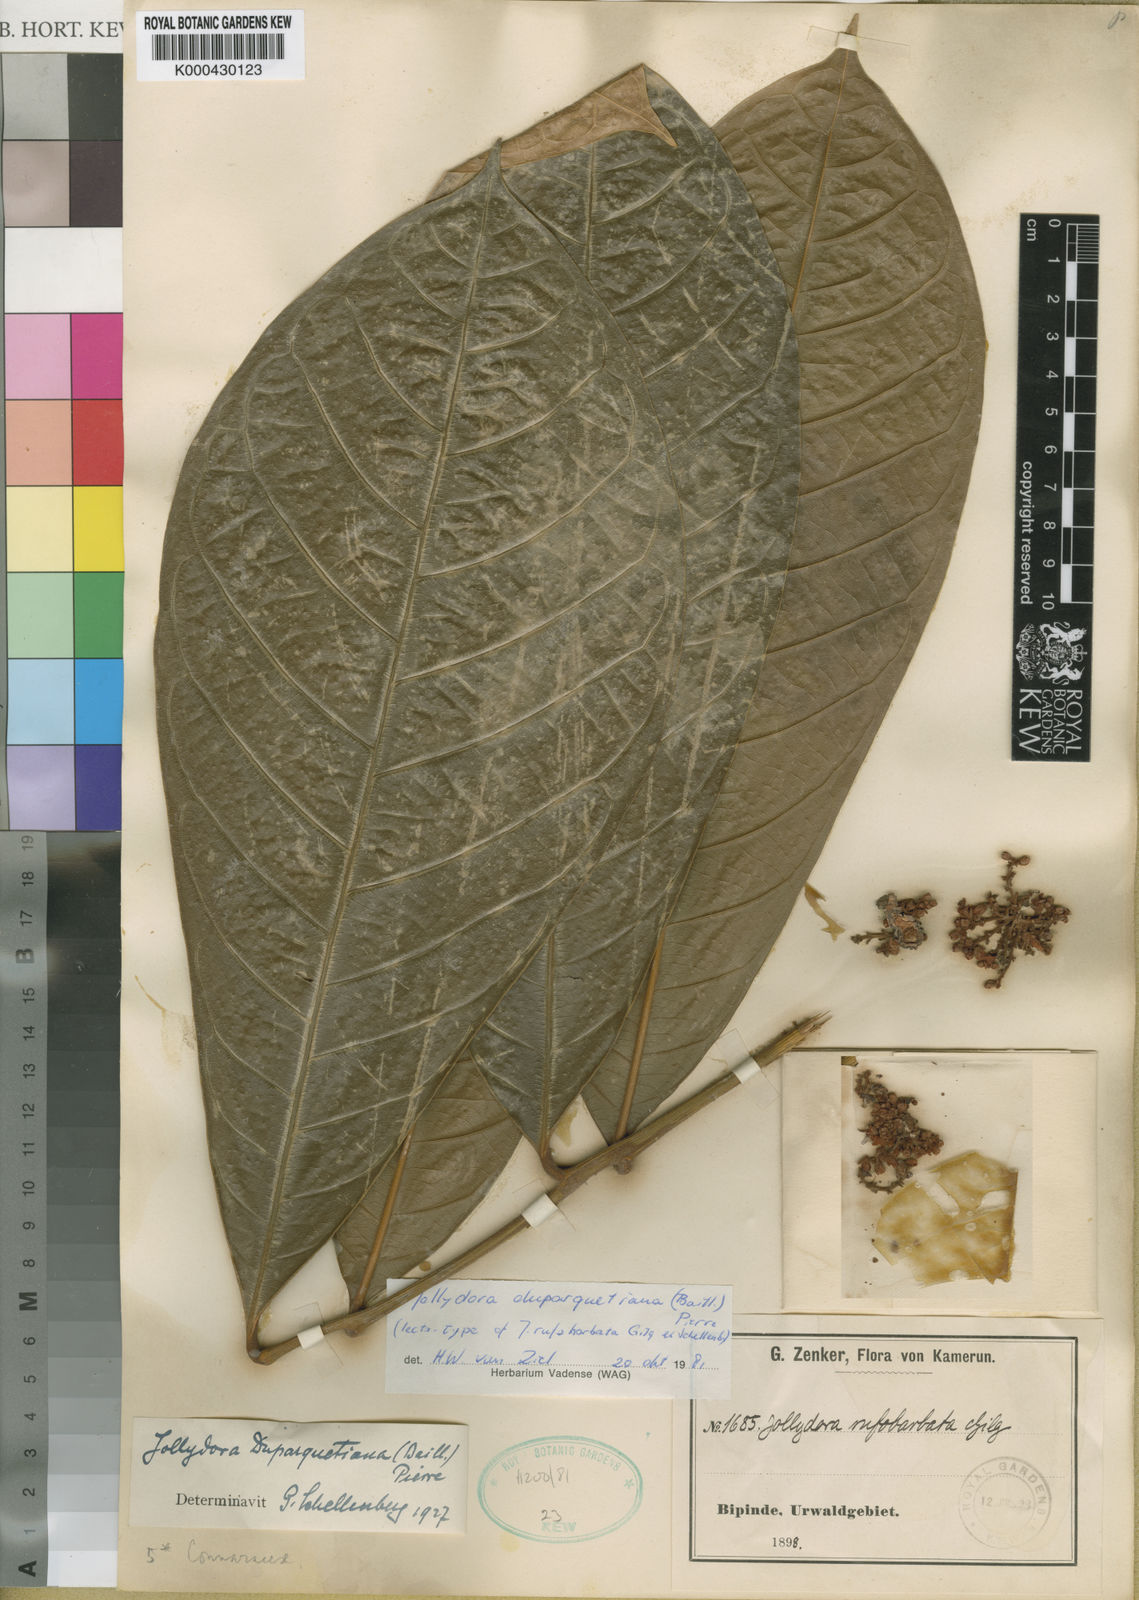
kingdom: Plantae
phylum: Tracheophyta
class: Magnoliopsida
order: Oxalidales
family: Connaraceae
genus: Jollydora
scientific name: Jollydora duparquetiana
